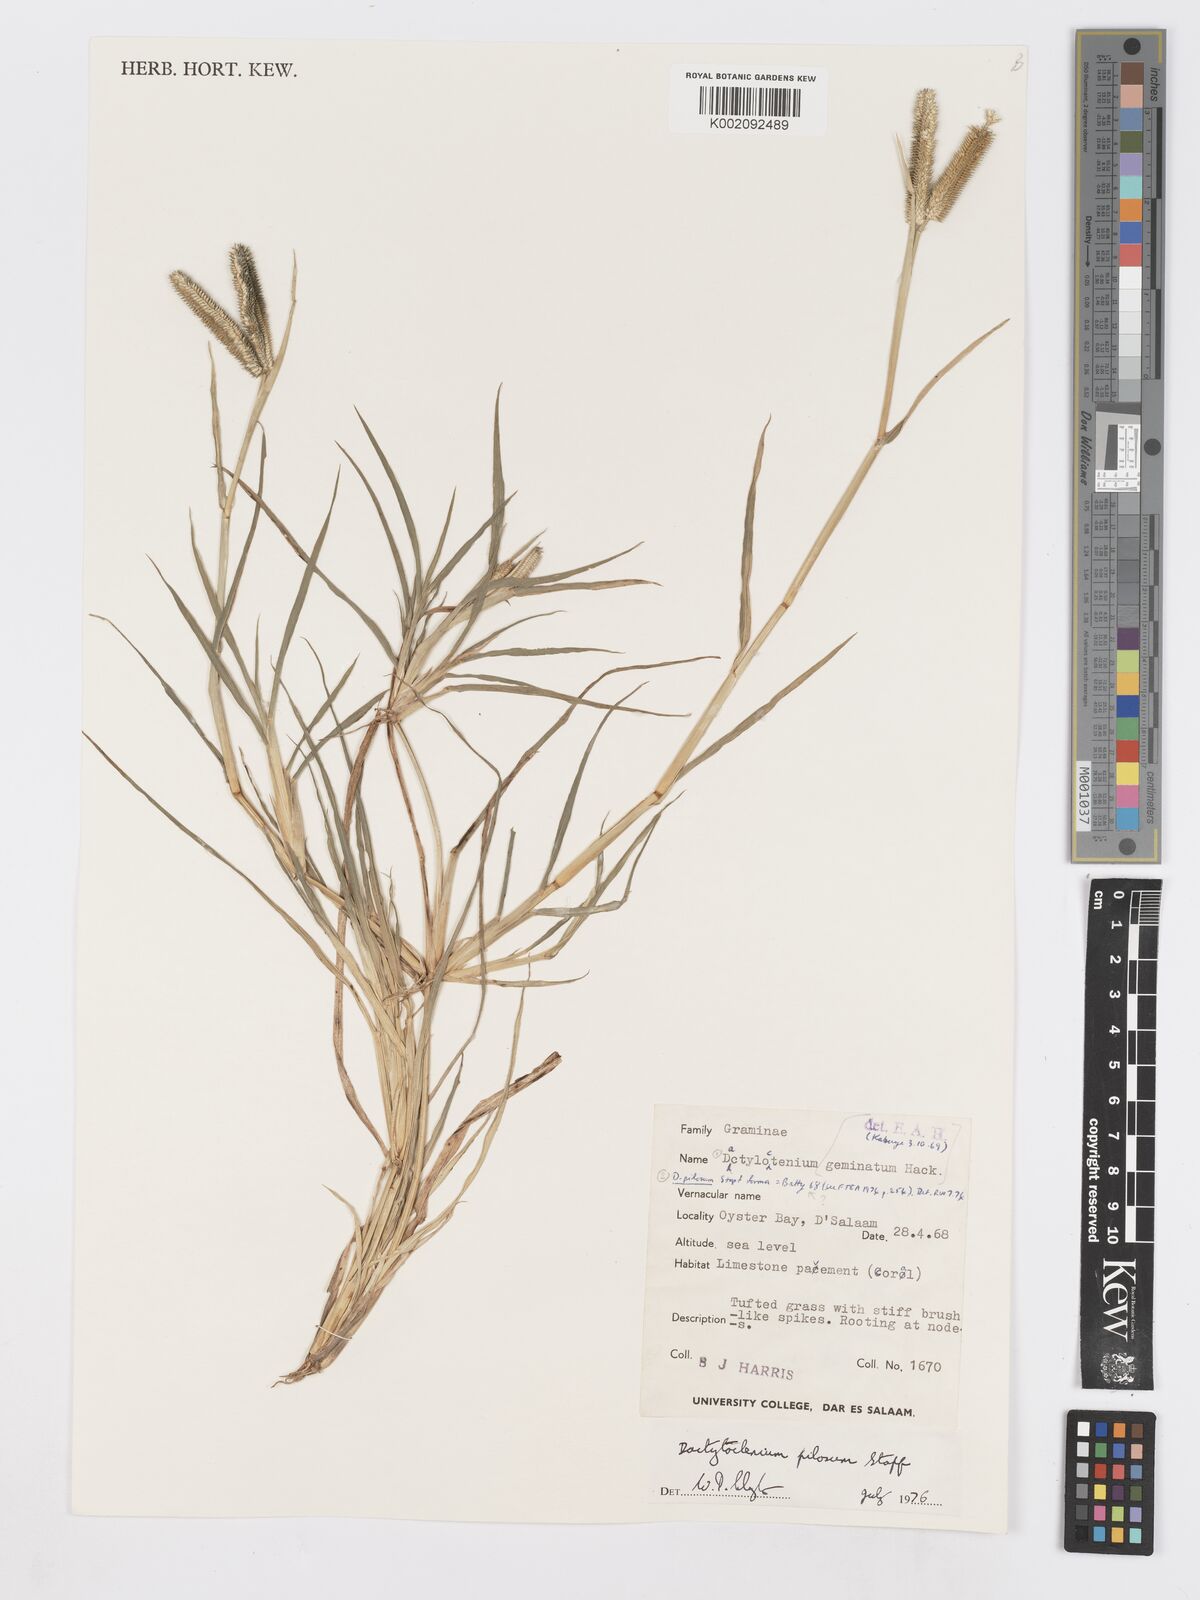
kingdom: Plantae
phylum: Tracheophyta
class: Liliopsida
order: Poales
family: Poaceae
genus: Dactyloctenium
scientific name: Dactyloctenium pilosum
